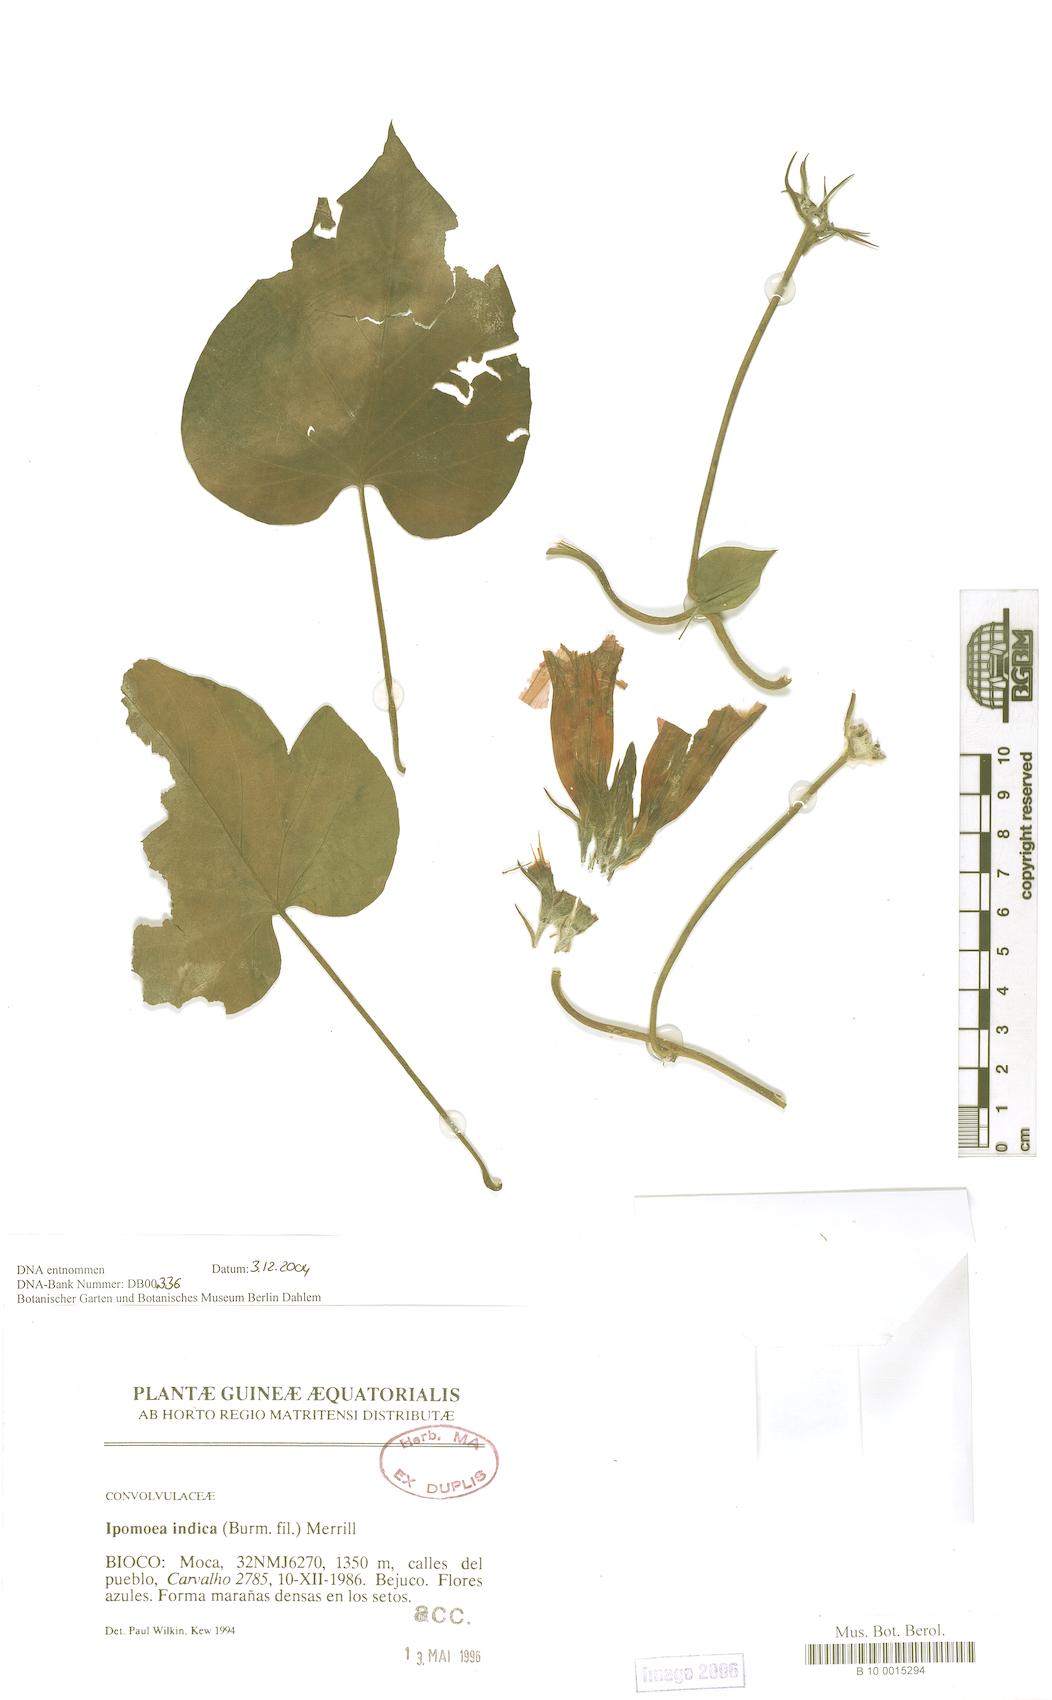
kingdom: Plantae
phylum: Tracheophyta
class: Magnoliopsida
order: Solanales
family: Convolvulaceae
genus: Ipomoea
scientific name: Ipomoea indica
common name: Blue dawnflower
